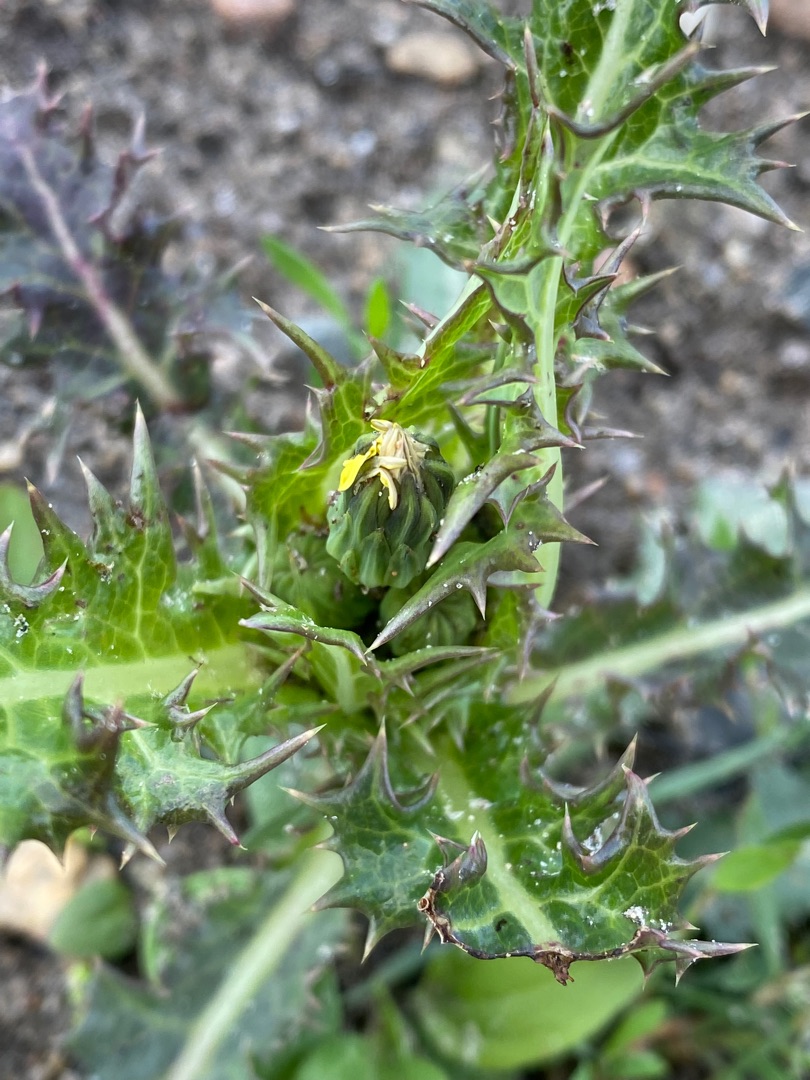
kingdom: Plantae
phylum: Tracheophyta
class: Magnoliopsida
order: Asterales
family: Asteraceae
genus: Sonchus
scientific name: Sonchus asper
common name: Ru svinemælk
